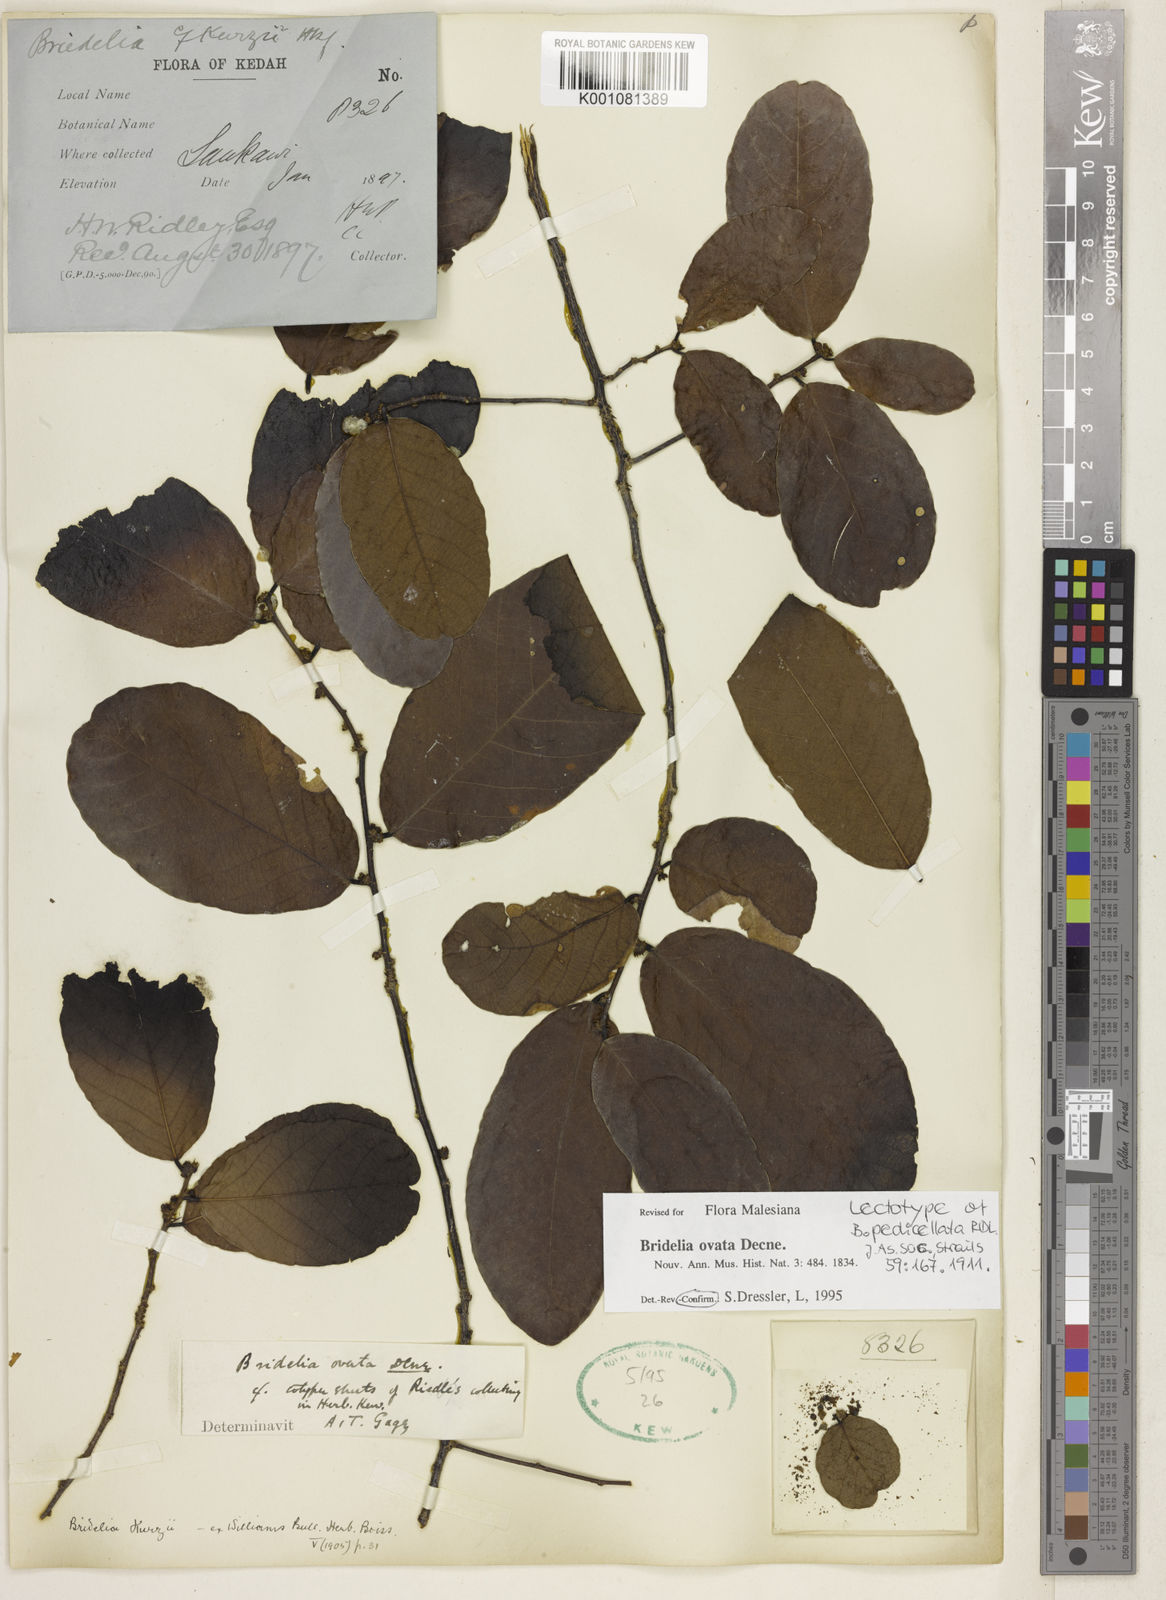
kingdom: Plantae
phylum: Tracheophyta
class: Magnoliopsida
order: Malpighiales
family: Phyllanthaceae
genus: Bridelia
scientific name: Bridelia ovata
